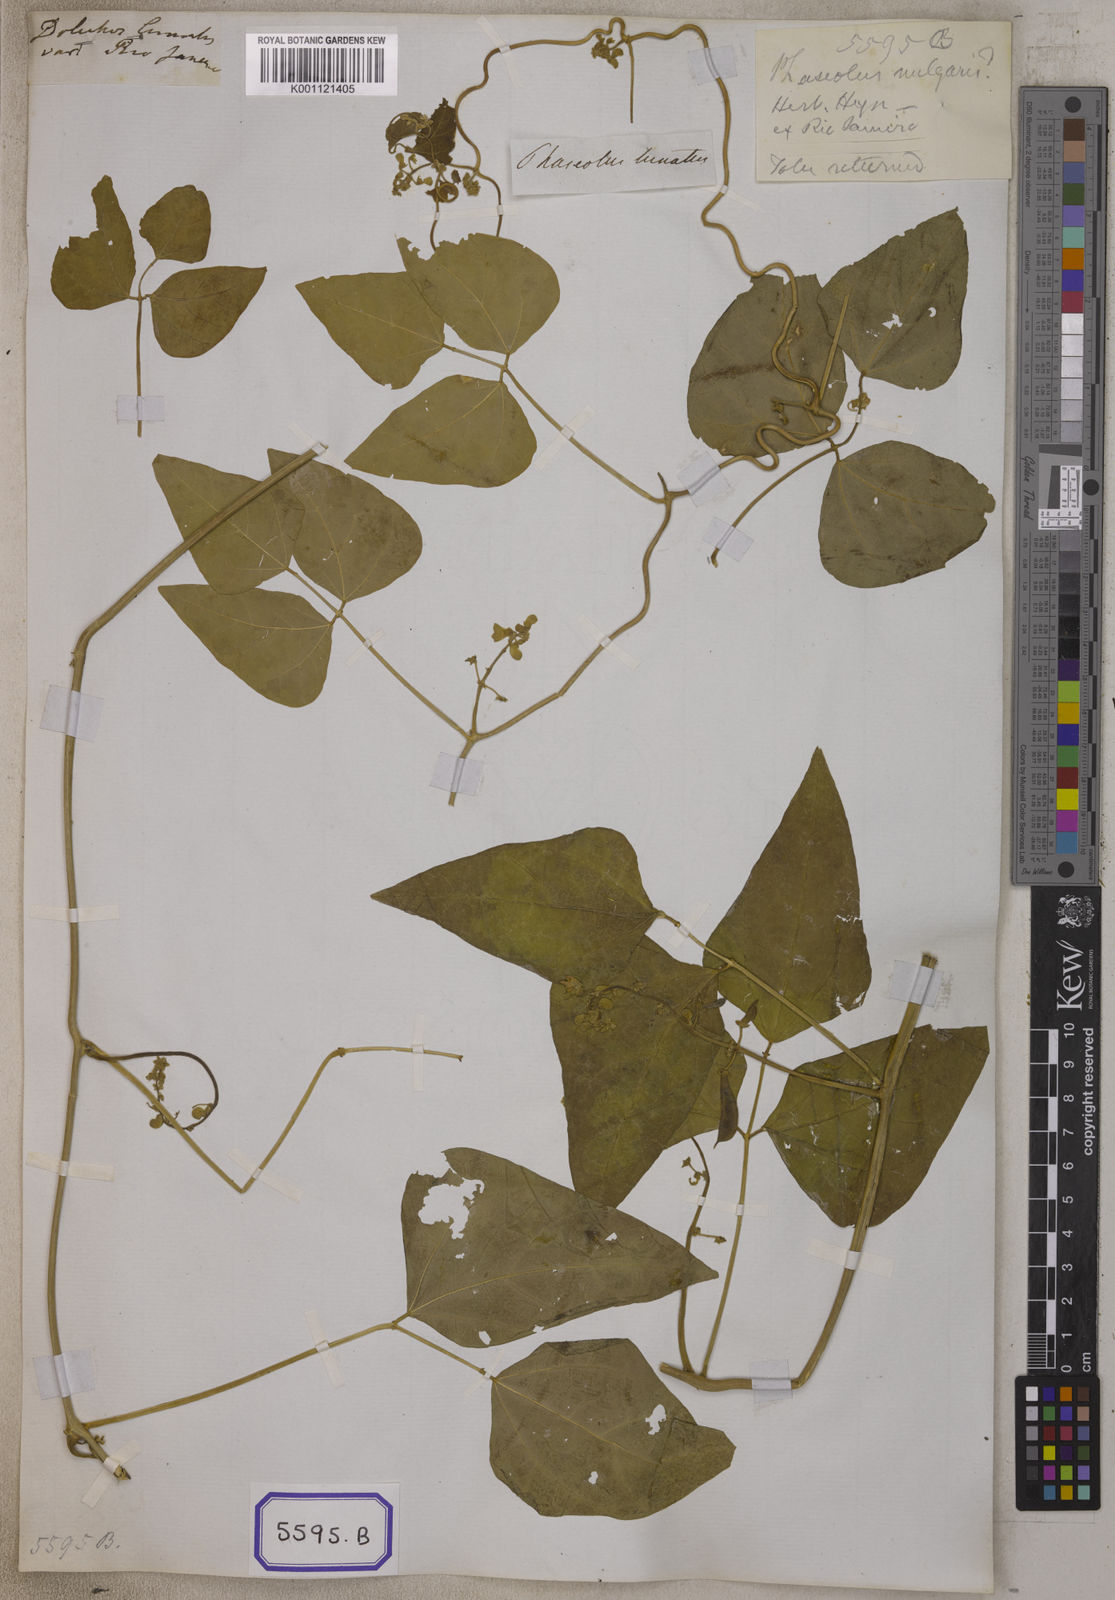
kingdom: Plantae
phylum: Tracheophyta
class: Magnoliopsida
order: Fabales
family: Fabaceae
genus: Phaseolus
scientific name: Phaseolus vulgaris
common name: Bean
